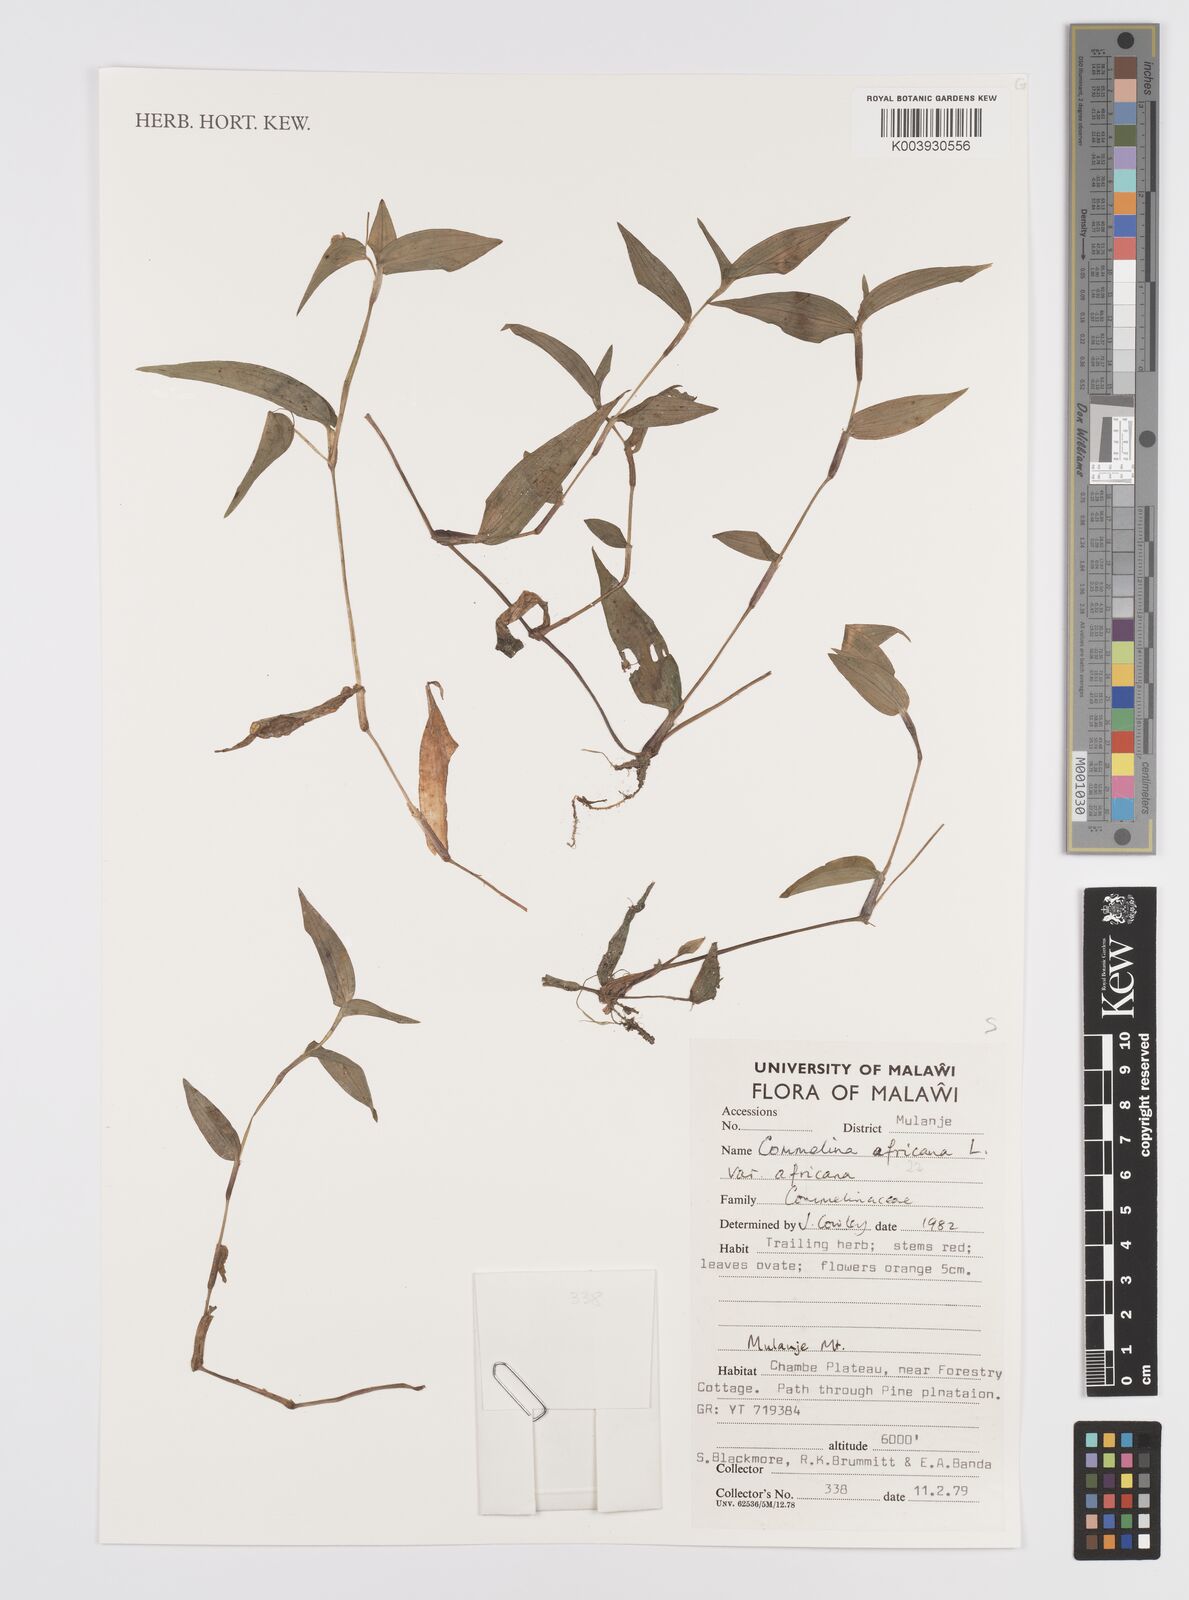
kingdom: Plantae
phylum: Tracheophyta
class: Liliopsida
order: Commelinales
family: Commelinaceae
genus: Commelina
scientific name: Commelina africana
